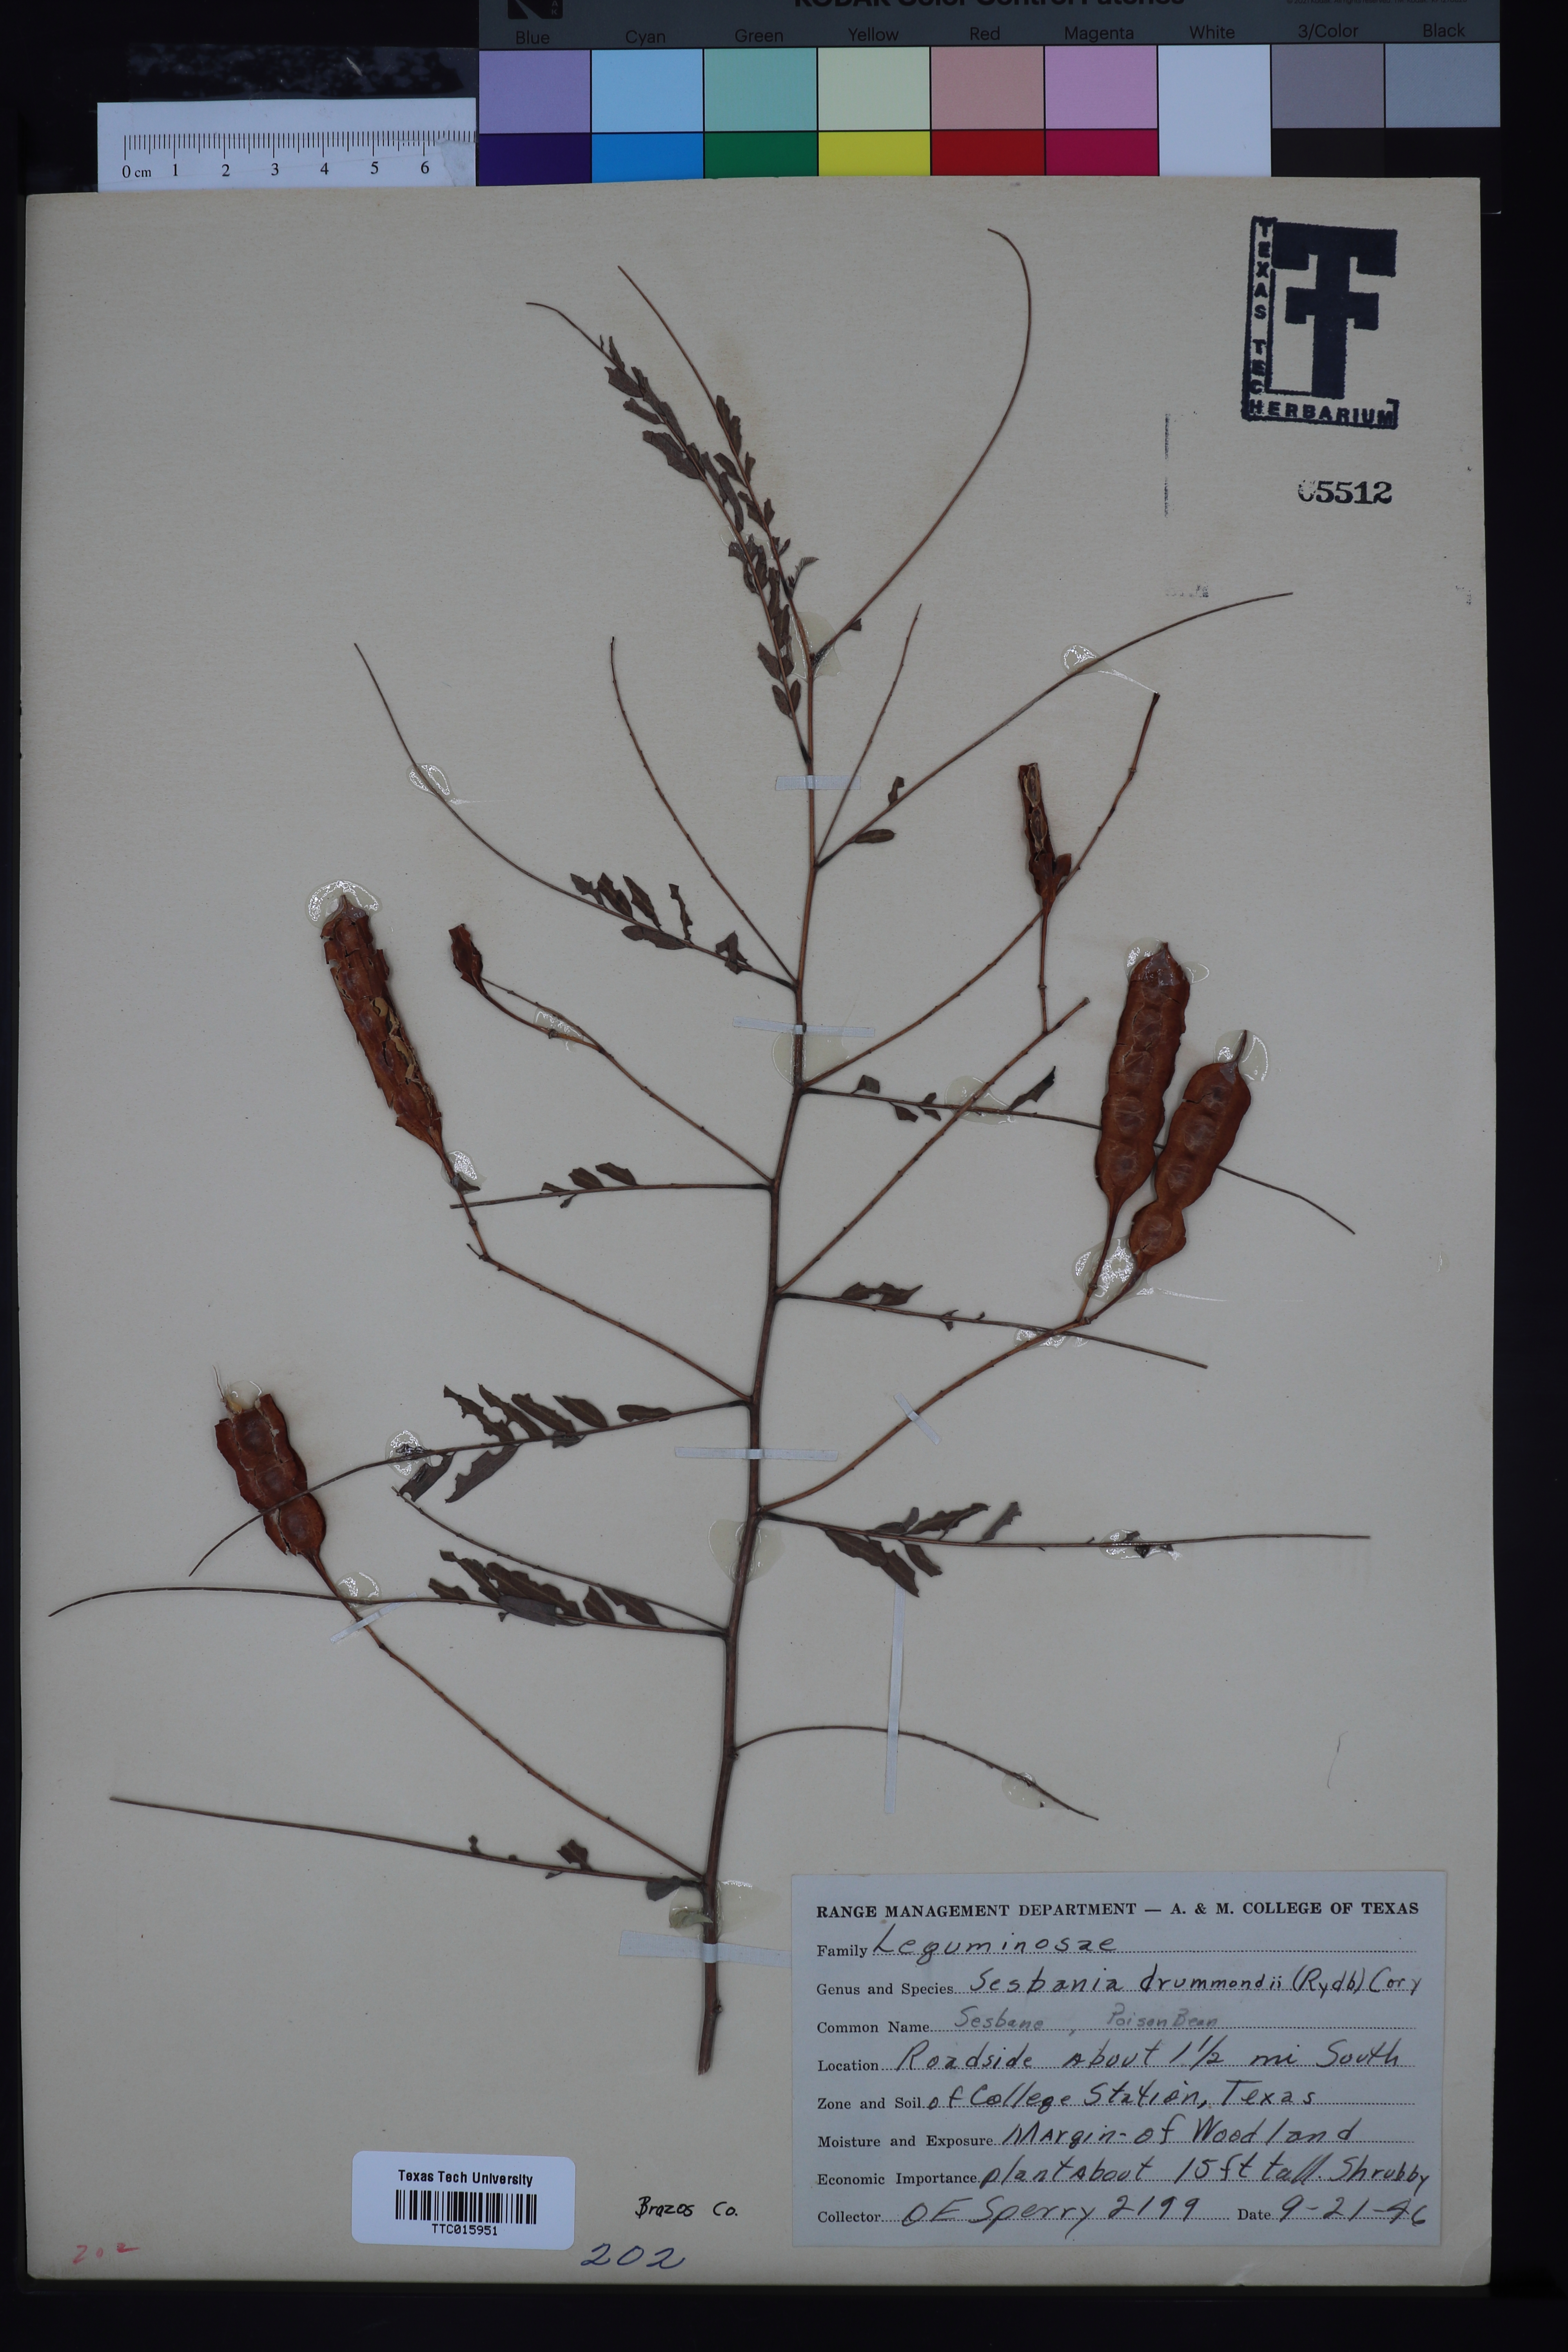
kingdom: Plantae
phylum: Tracheophyta
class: Magnoliopsida
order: Fabales
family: Fabaceae
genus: Sesbania
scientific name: Sesbania drummondii
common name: Poison-bean
